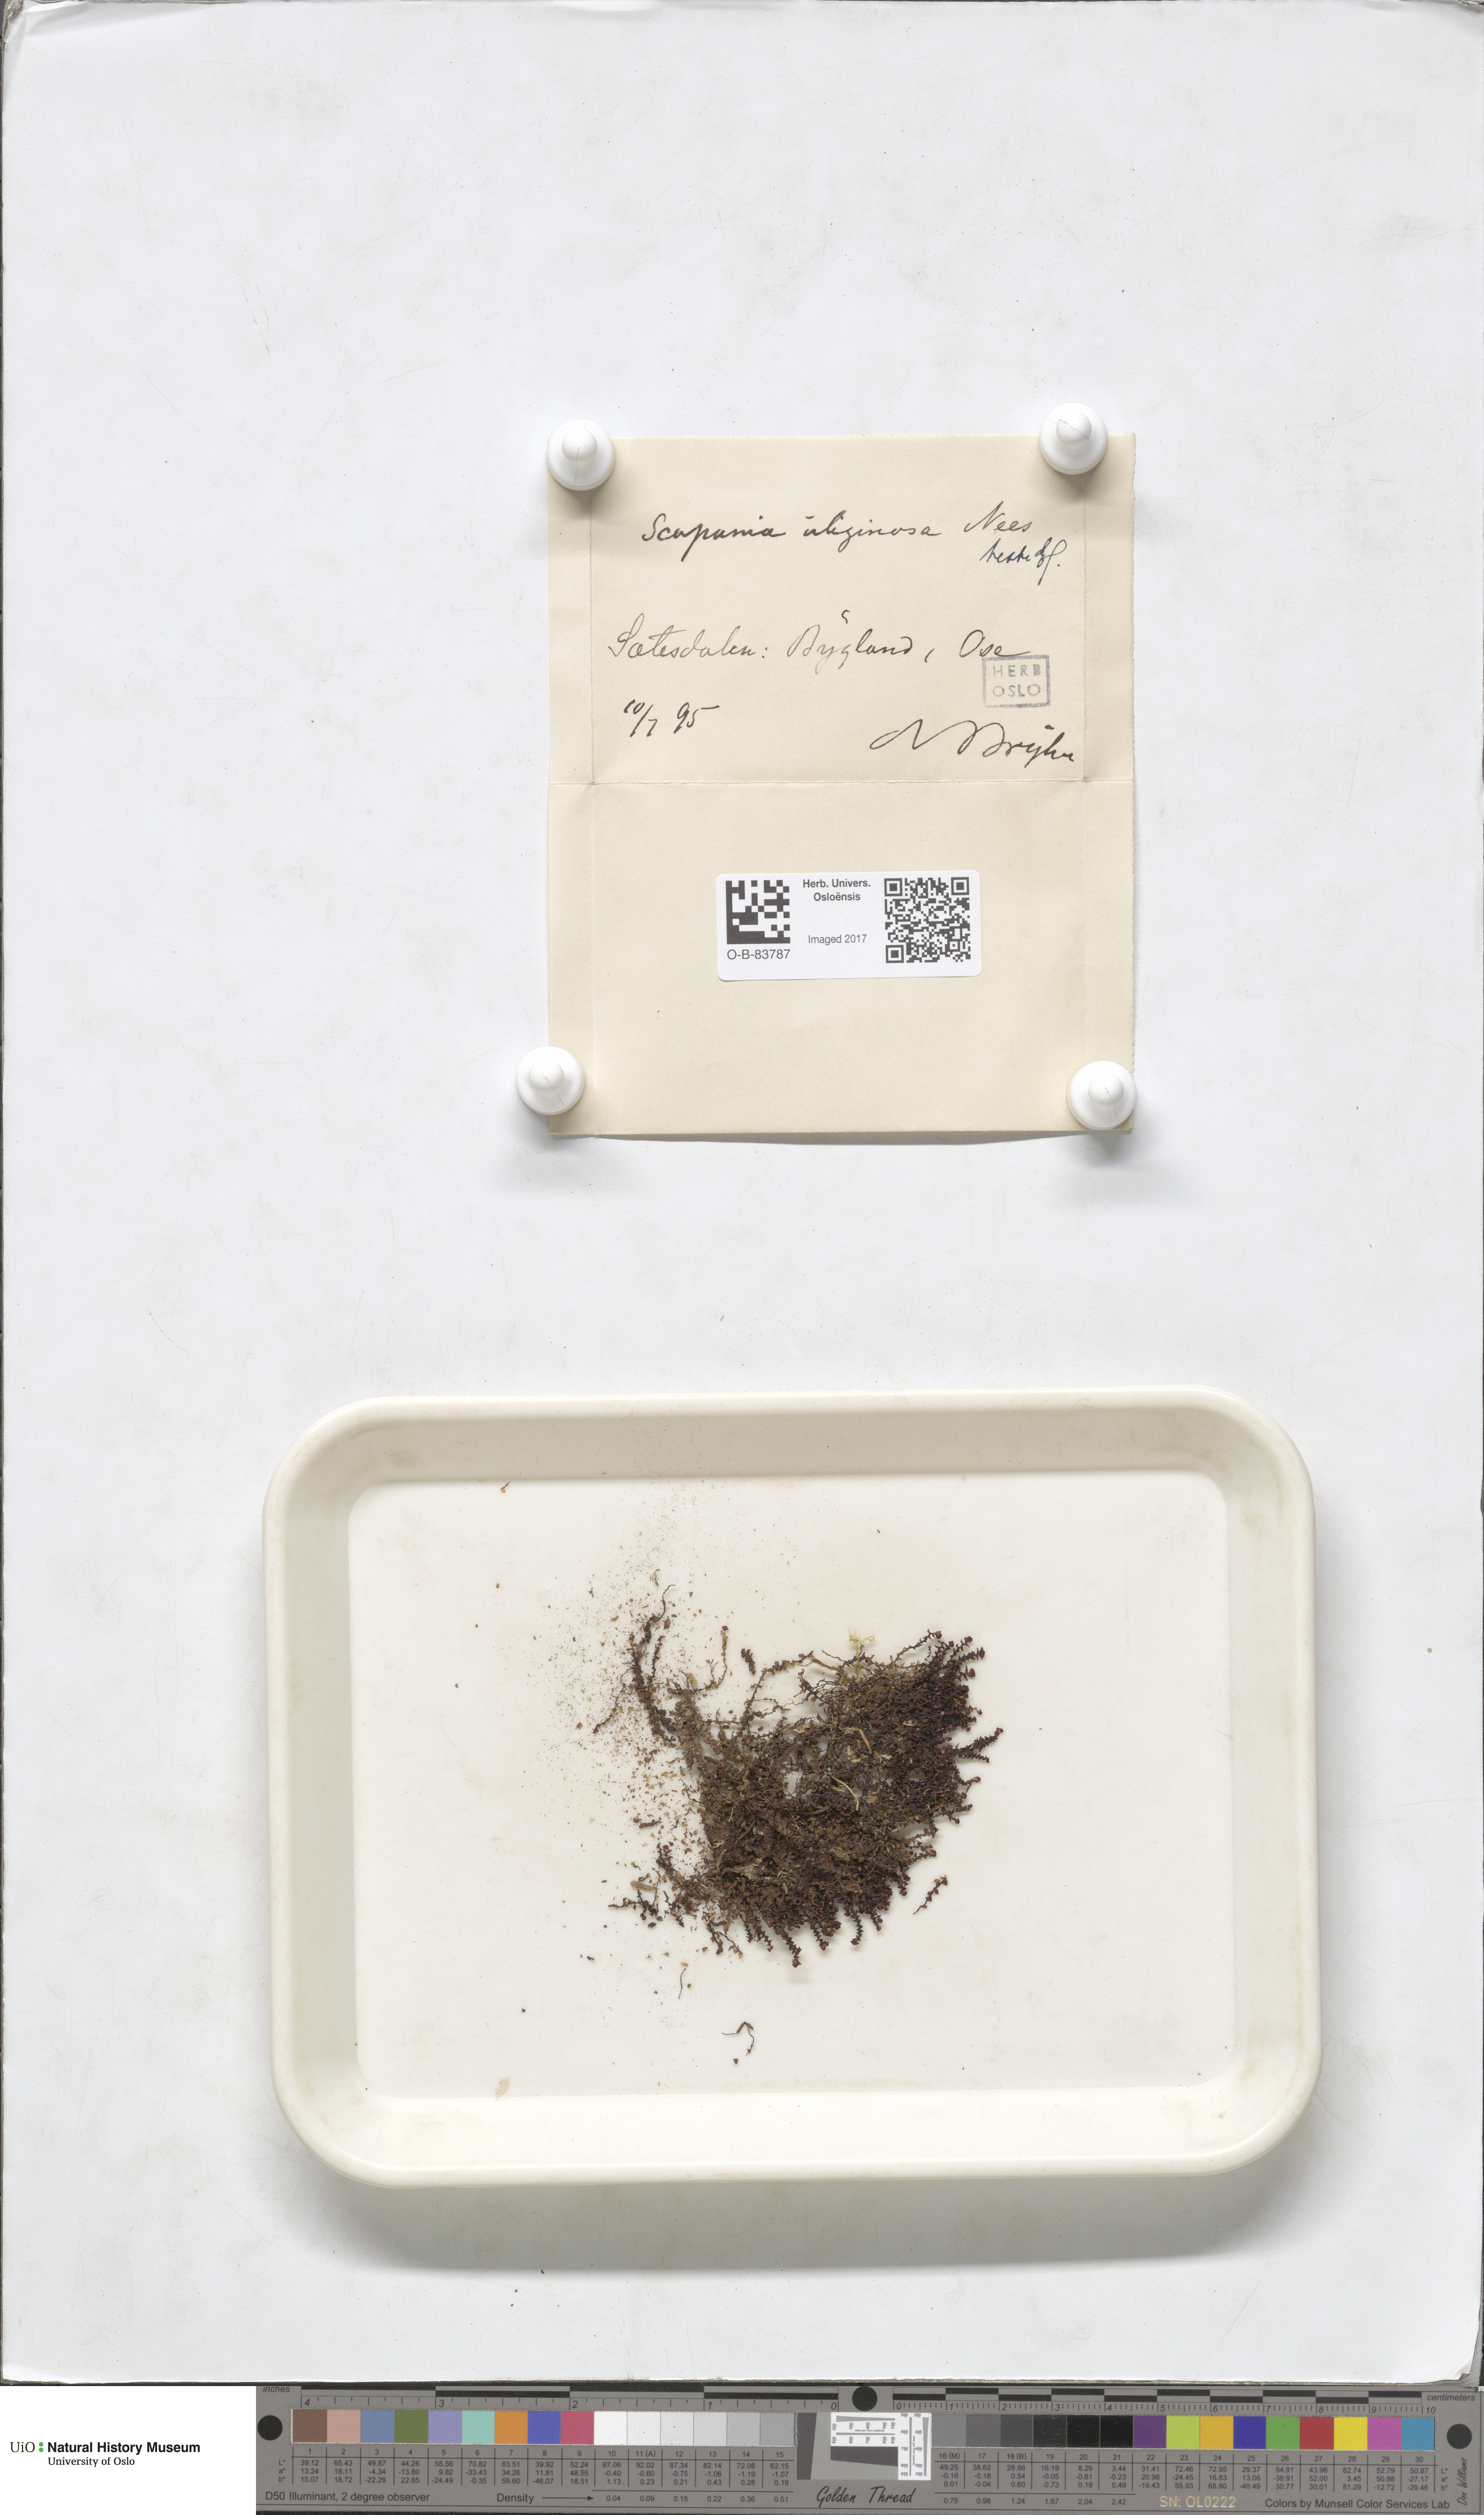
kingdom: Plantae
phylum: Marchantiophyta
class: Jungermanniopsida
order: Jungermanniales
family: Scapaniaceae
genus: Scapania
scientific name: Scapania uliginosa
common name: Marsh earwort
